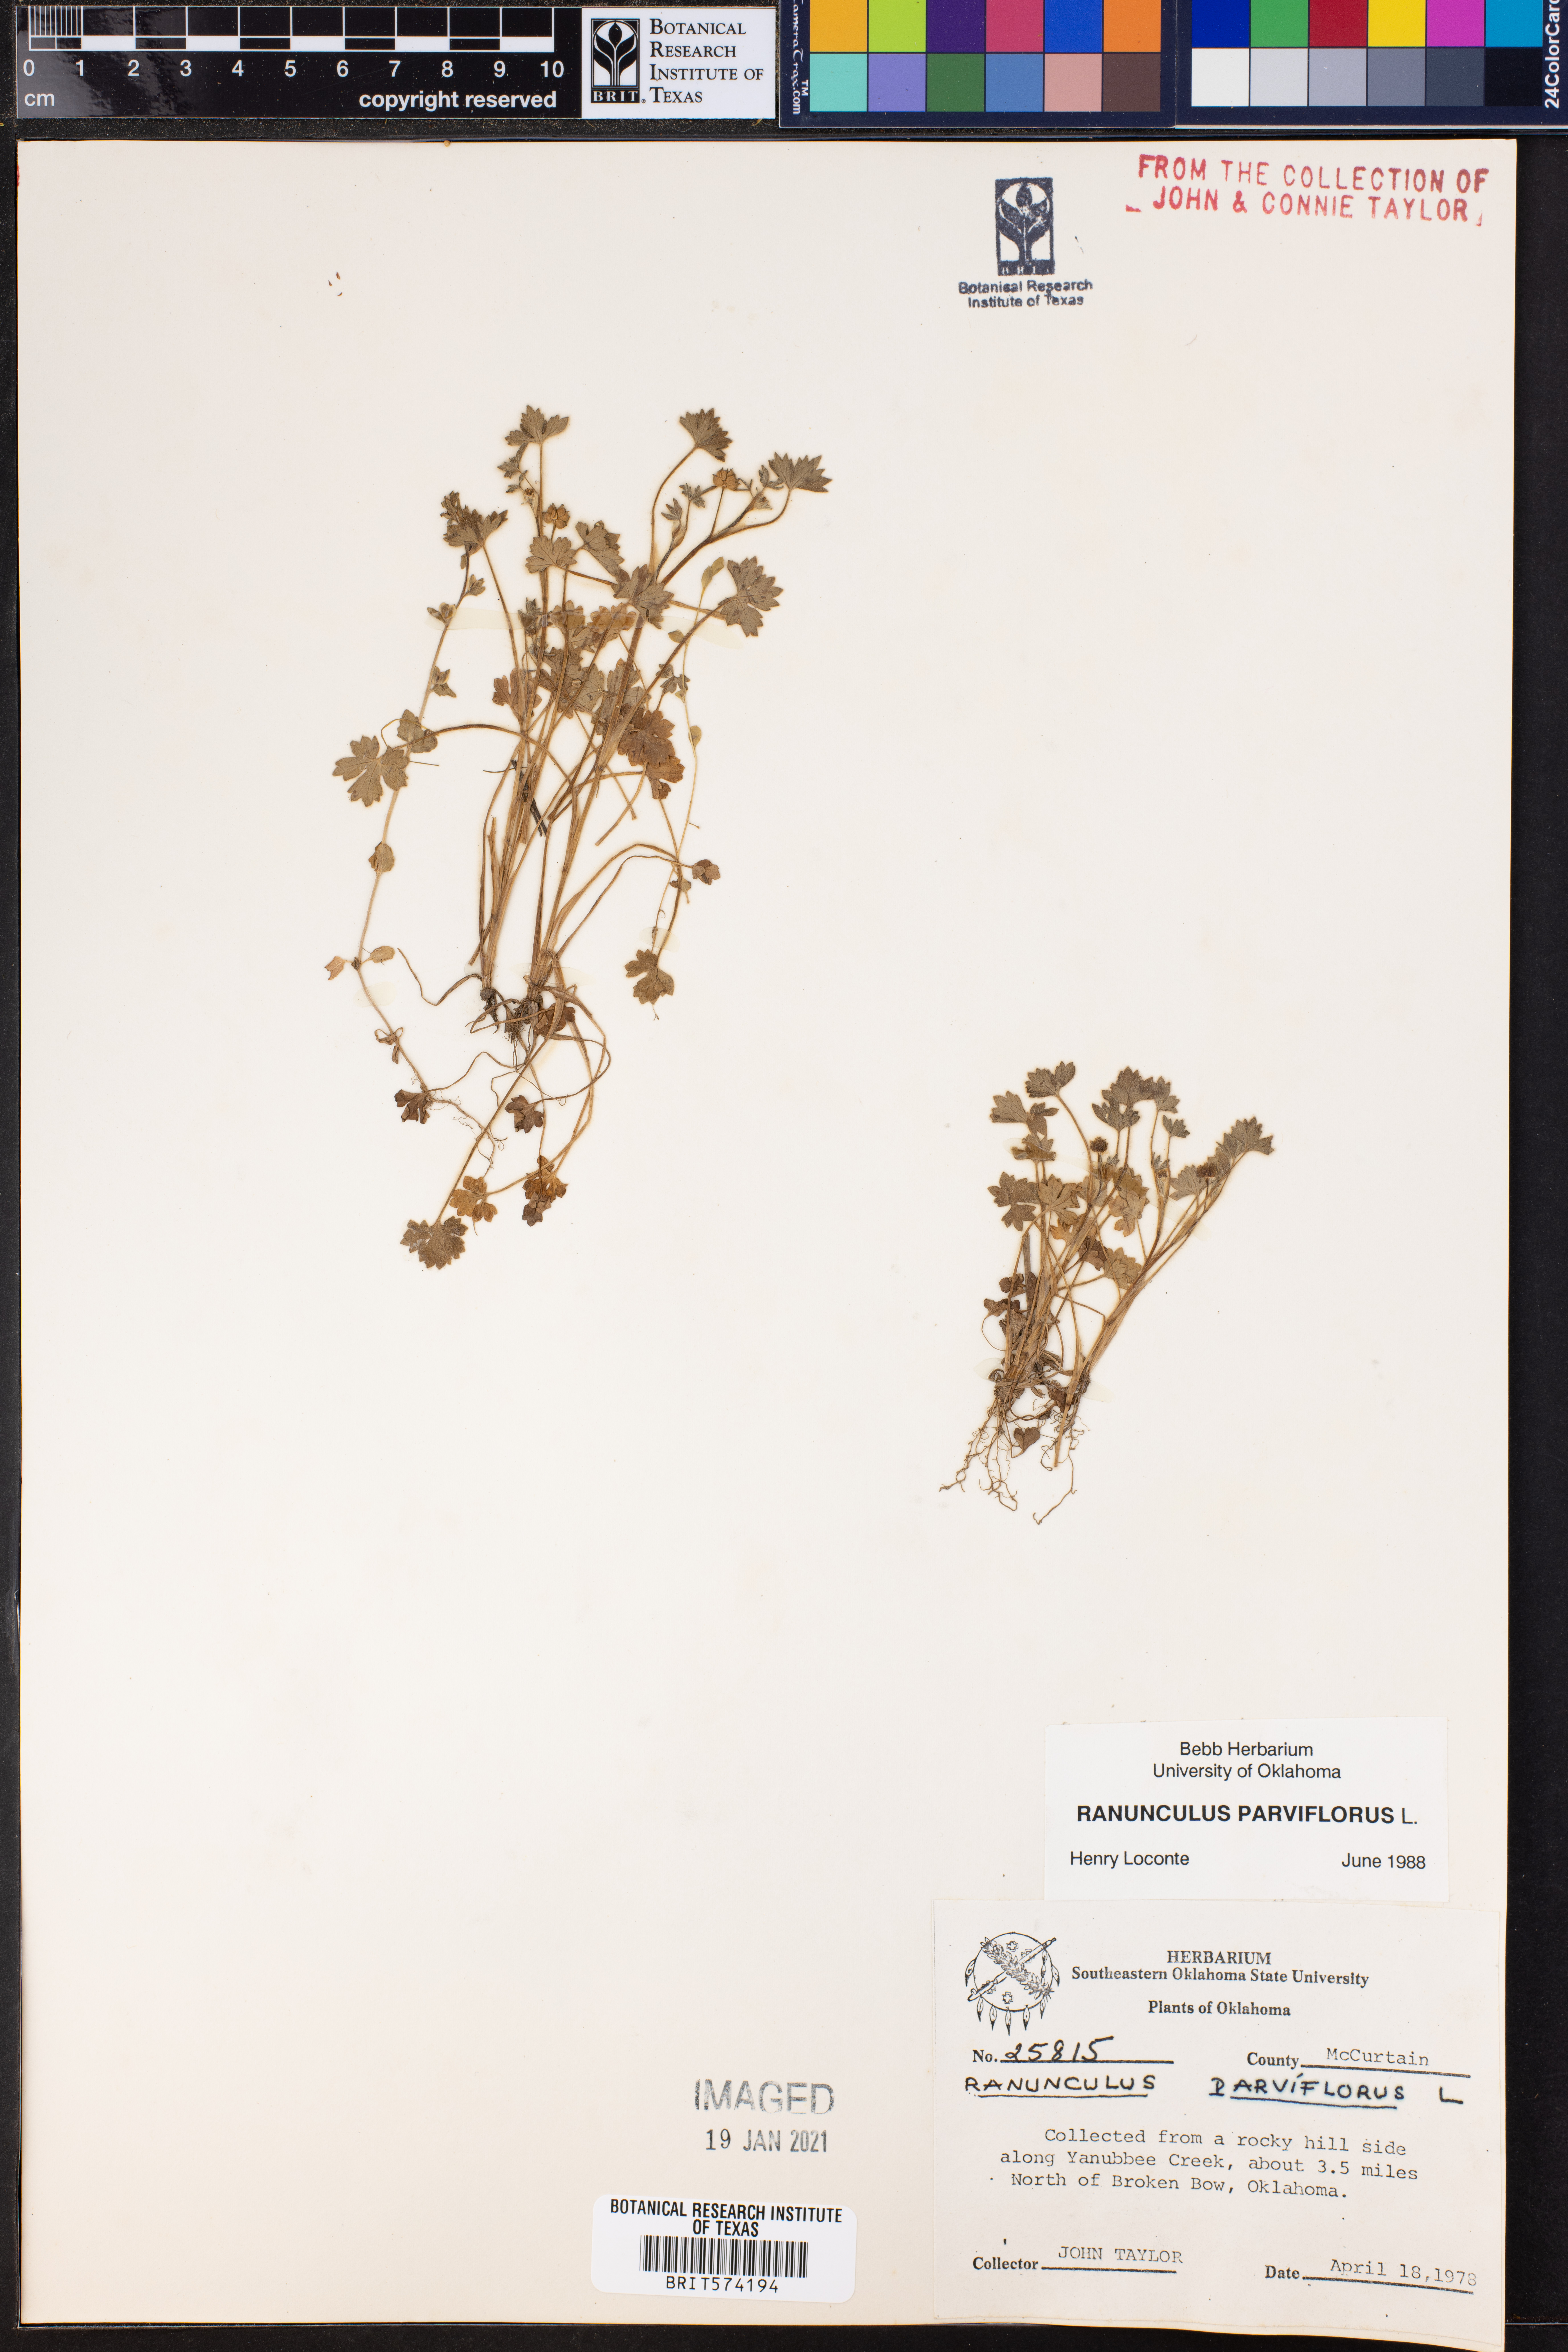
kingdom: Plantae
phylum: Tracheophyta
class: Magnoliopsida
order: Ranunculales
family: Ranunculaceae
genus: Ranunculus
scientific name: Ranunculus parviflorus
